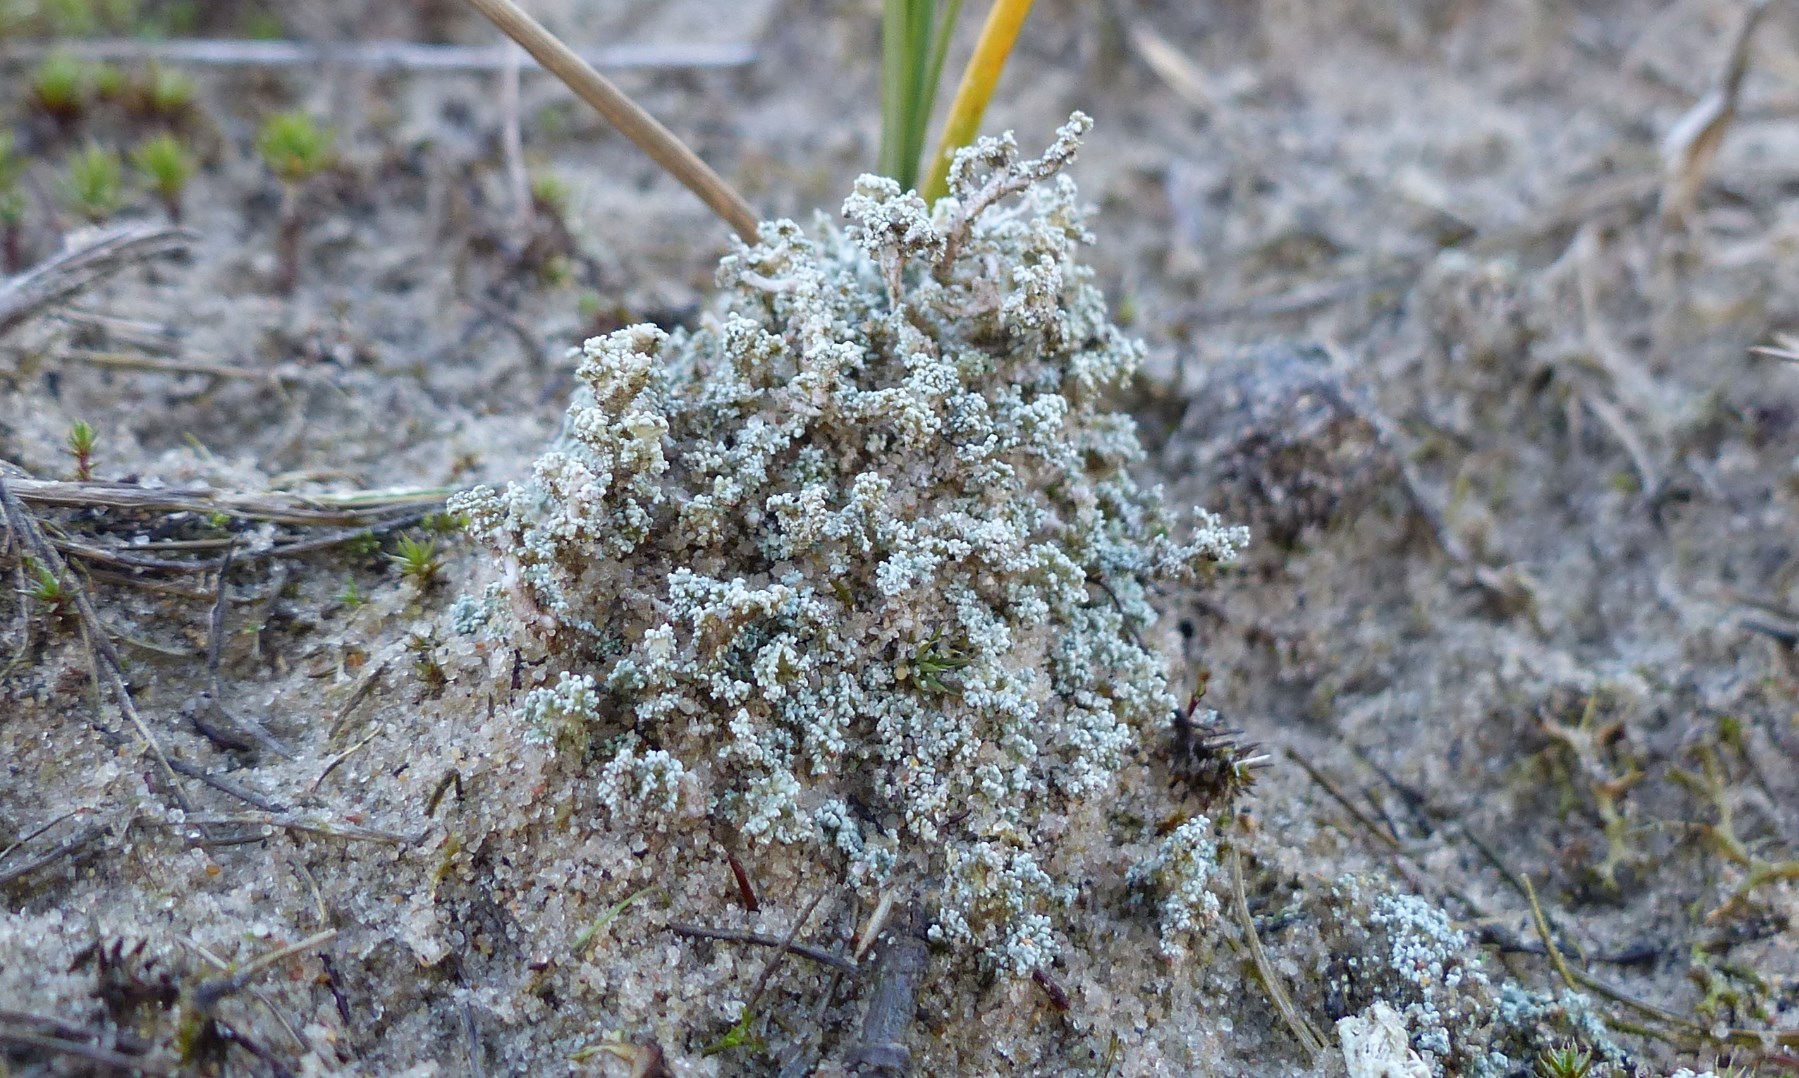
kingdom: Fungi
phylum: Ascomycota
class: Lecanoromycetes
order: Lecanorales
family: Stereocaulaceae
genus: Stereocaulon
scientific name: Stereocaulon saxatile
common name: klit-korallav
